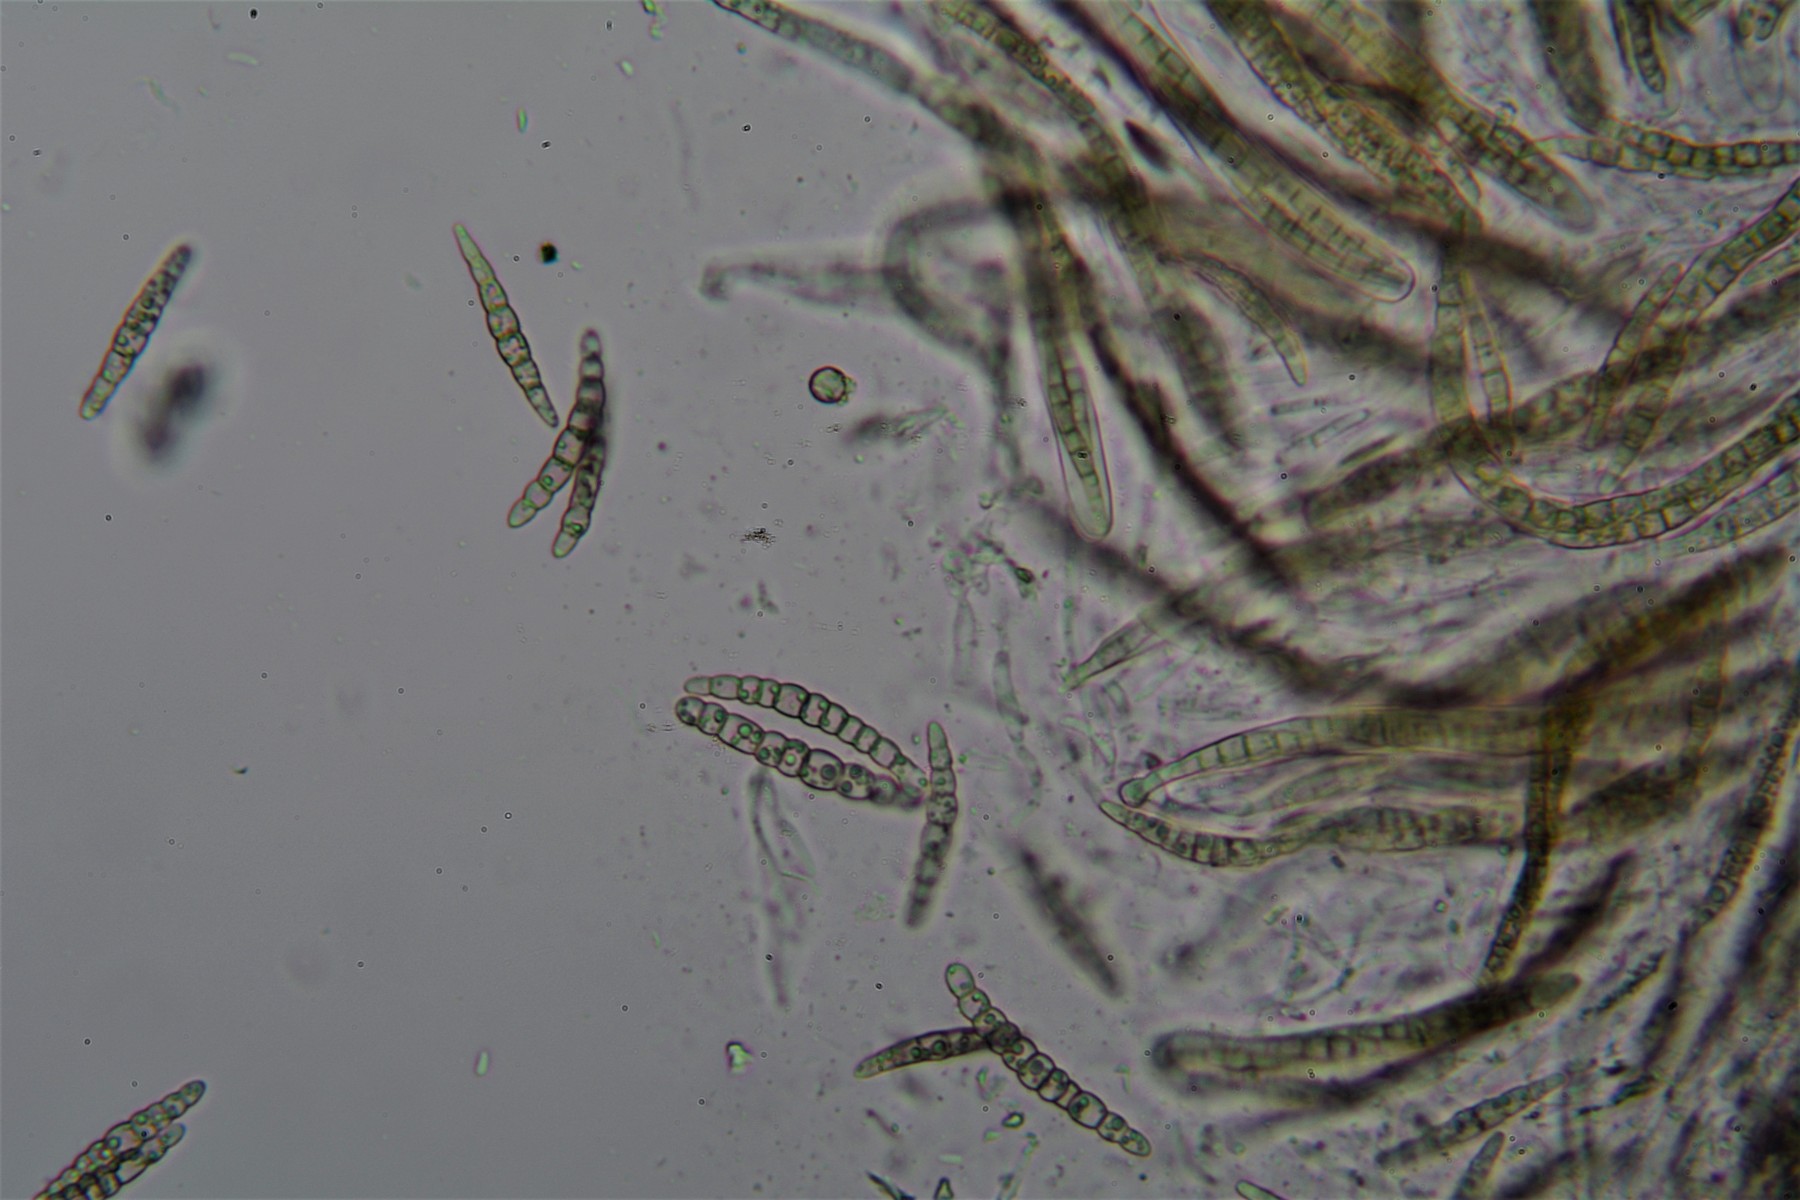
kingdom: Fungi
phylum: Ascomycota
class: Dothideomycetes
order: Pleosporales
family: Leptosphaeriaceae
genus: Leptosphaeria
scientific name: Leptosphaeria acuta
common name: spids kulkegle
